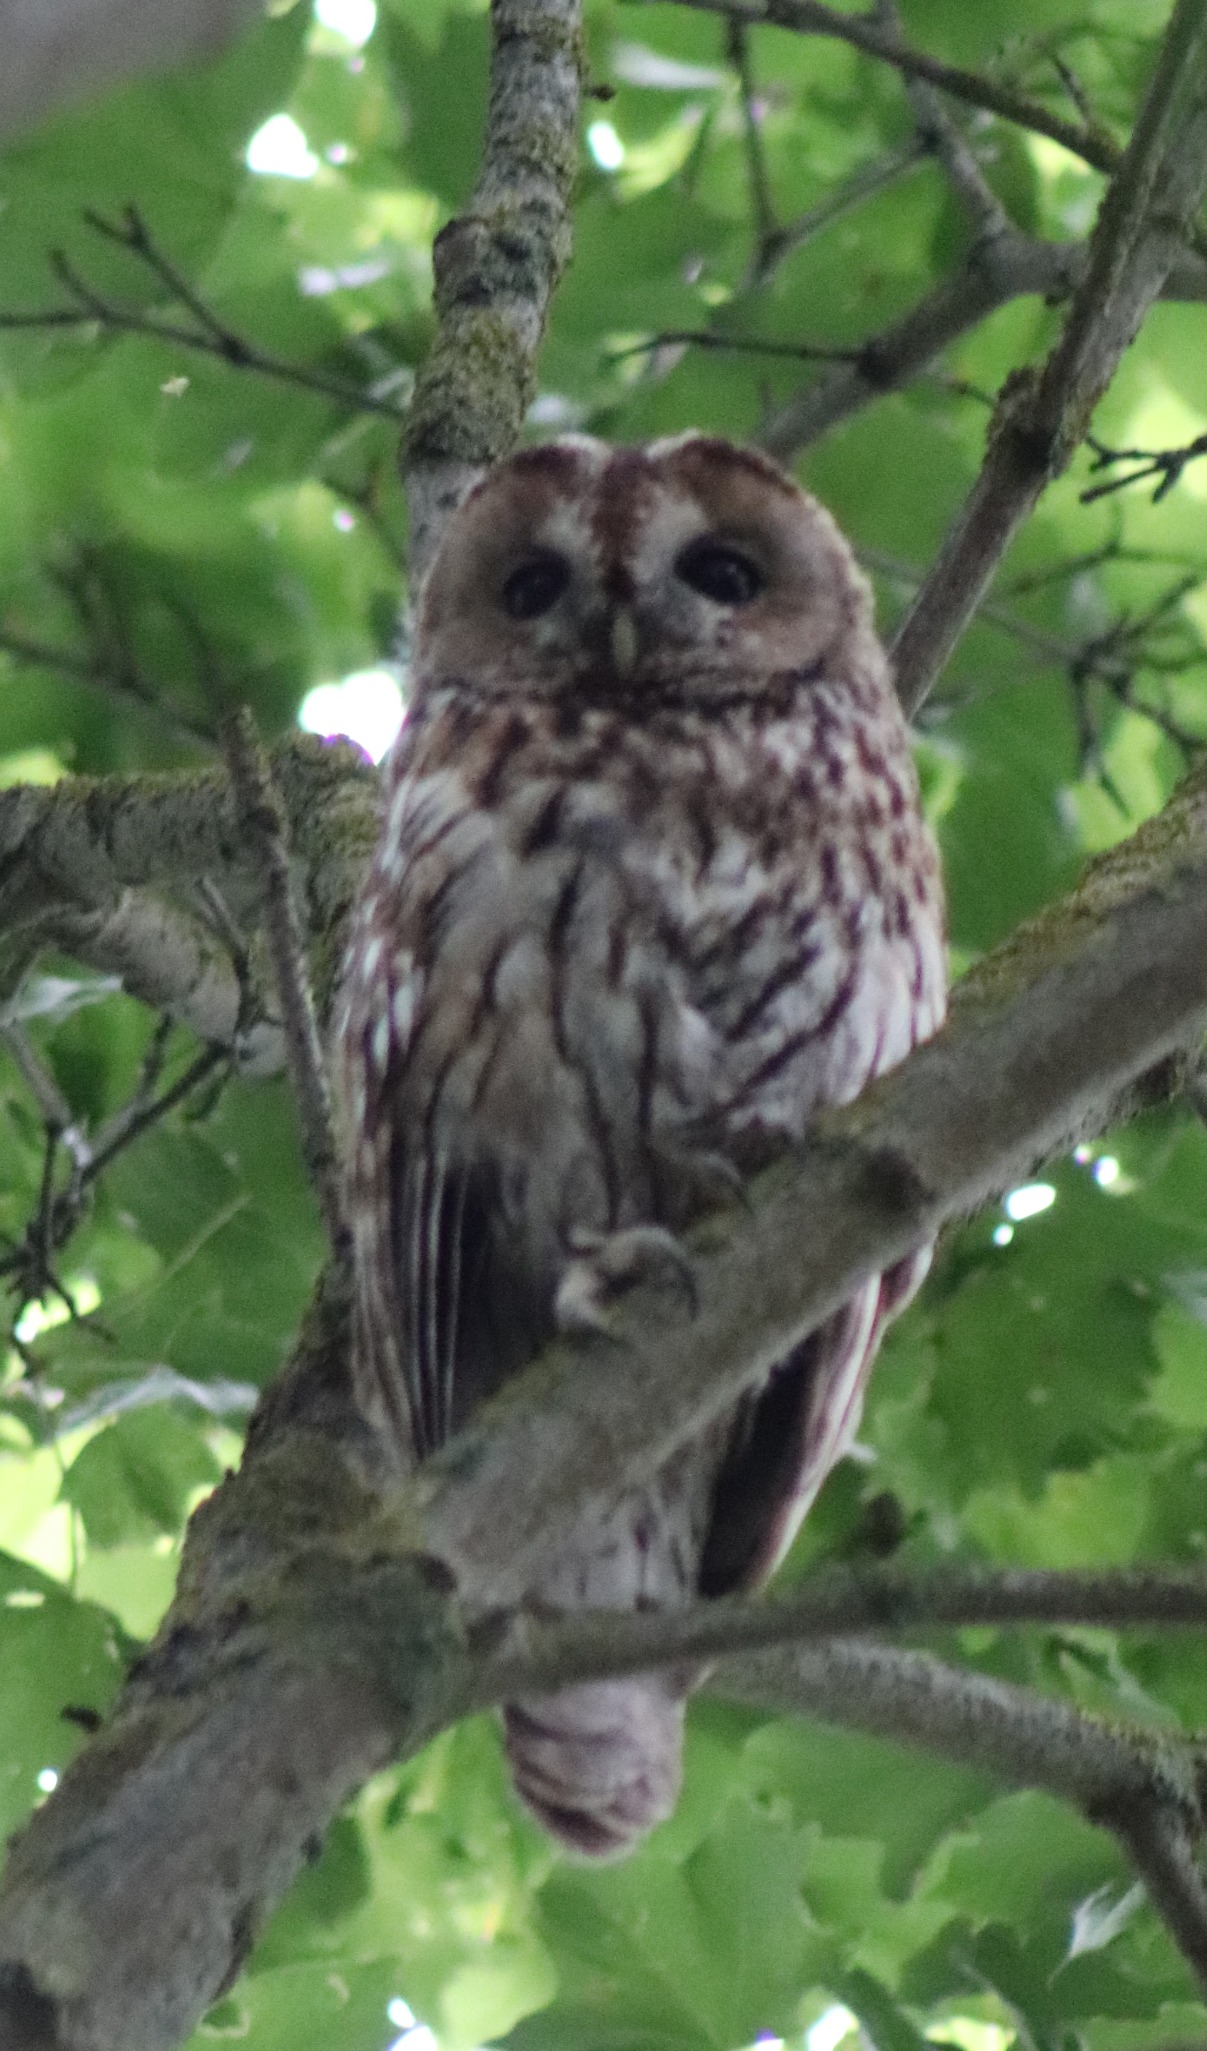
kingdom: Animalia
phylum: Chordata
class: Aves
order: Strigiformes
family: Strigidae
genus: Strix
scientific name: Strix aluco
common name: Natugle
